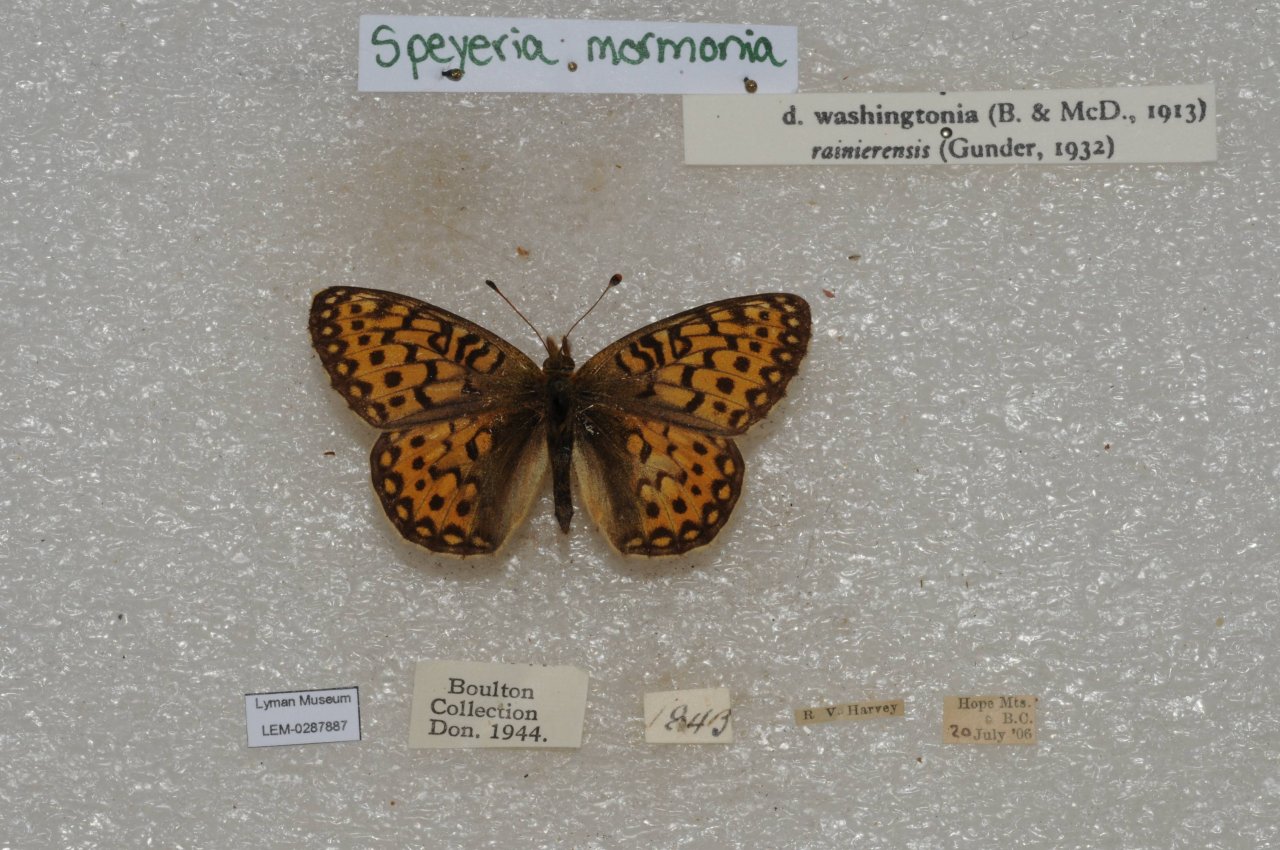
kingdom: Animalia
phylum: Arthropoda
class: Insecta
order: Lepidoptera
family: Nymphalidae
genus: Speyeria
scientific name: Speyeria mormonia
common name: Mormon Fritillary
